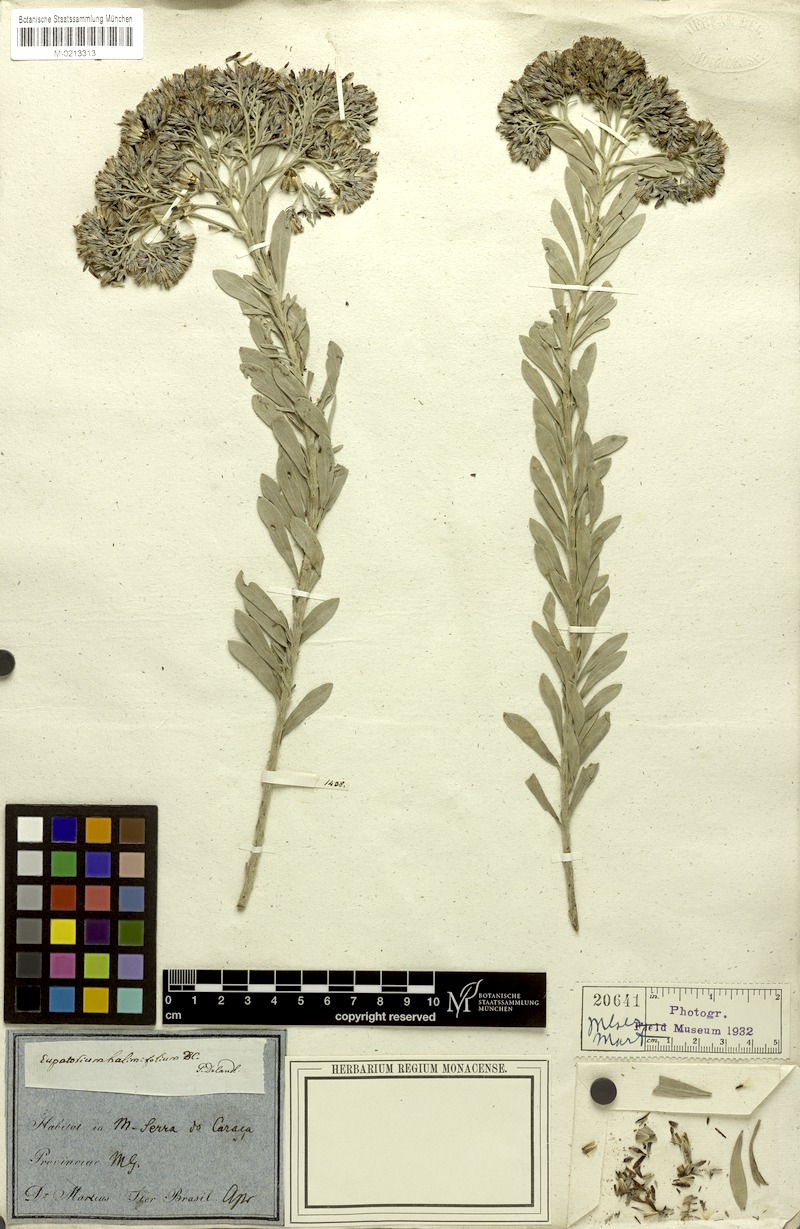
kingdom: Plantae
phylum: Tracheophyta
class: Magnoliopsida
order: Asterales
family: Asteraceae
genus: Disynaphia
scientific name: Disynaphia spathulata
